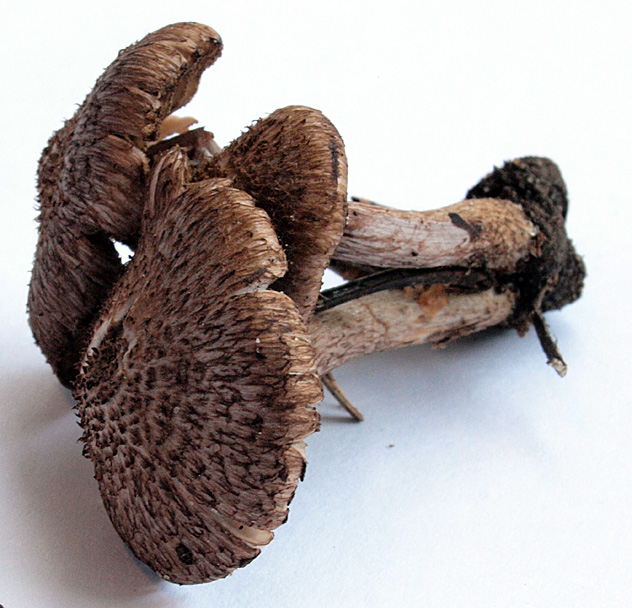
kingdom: Fungi
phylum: Basidiomycota
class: Agaricomycetes
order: Agaricales
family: Inocybaceae
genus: Inocybe
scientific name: Inocybe cincinnata
